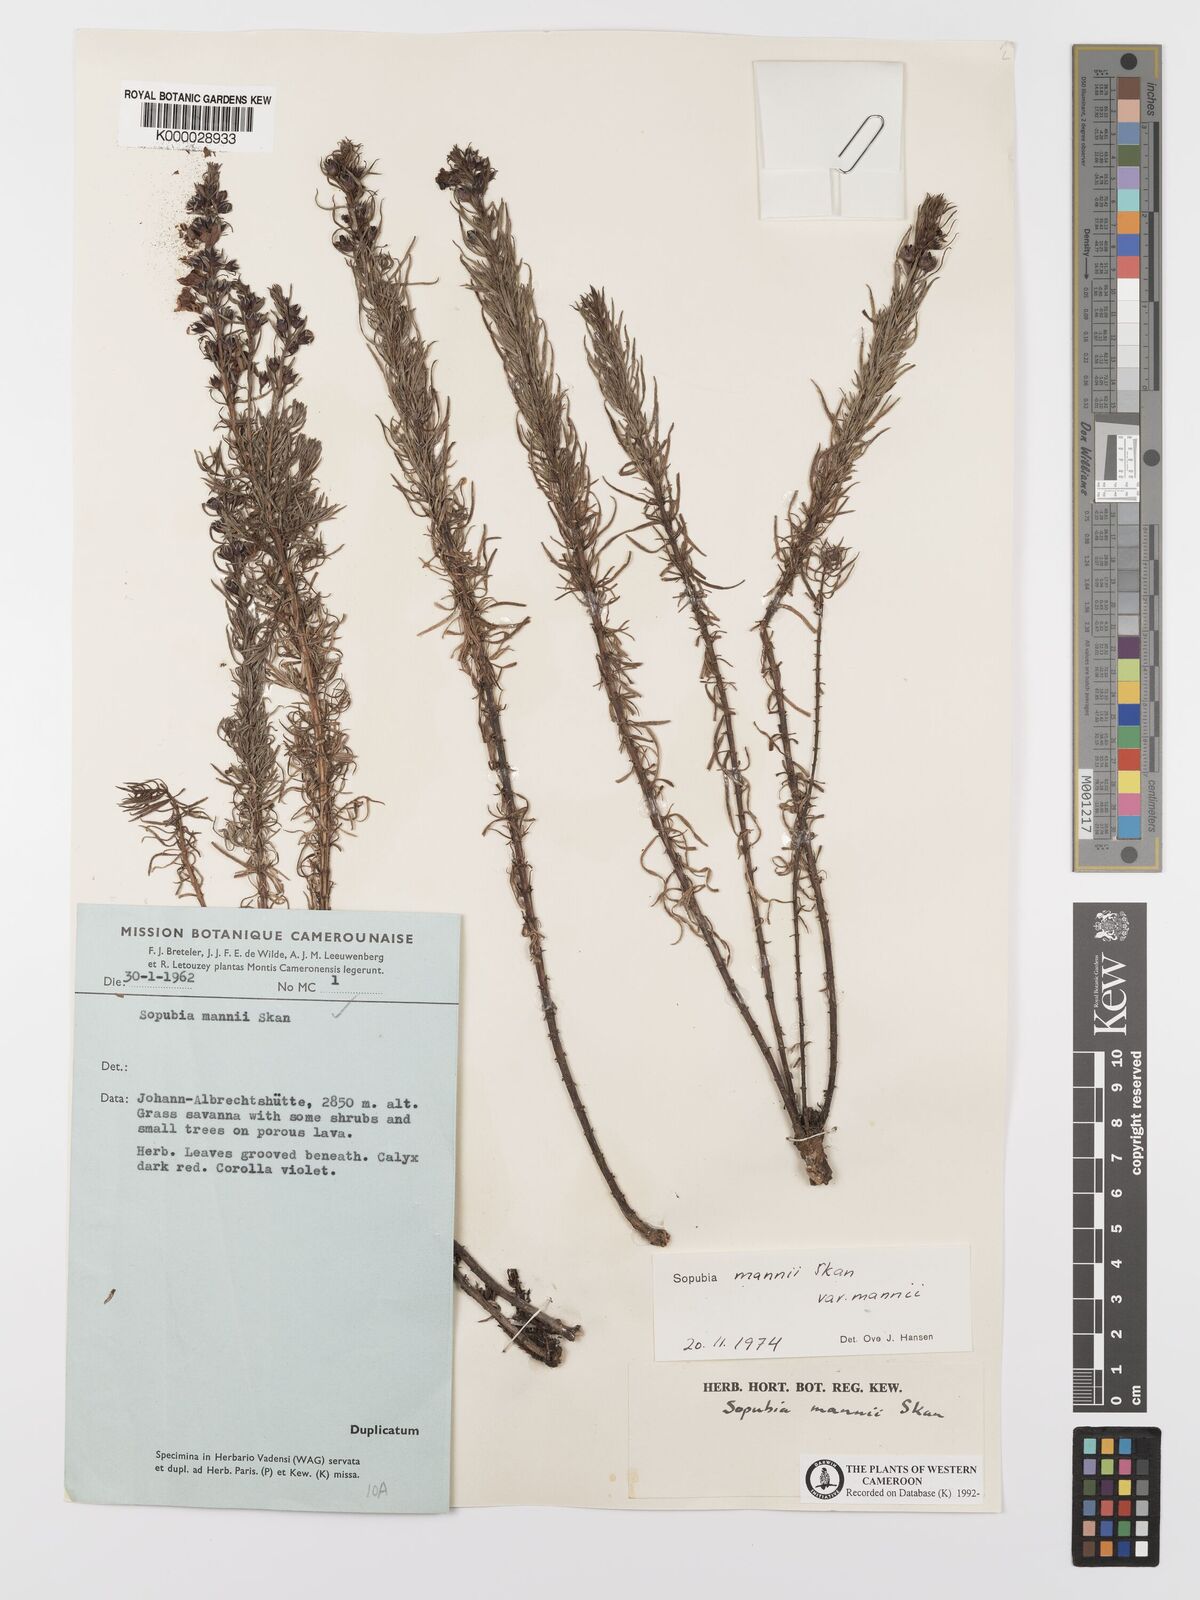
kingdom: Plantae
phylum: Tracheophyta
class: Magnoliopsida
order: Lamiales
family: Orobanchaceae
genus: Sopubia
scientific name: Sopubia mannii
